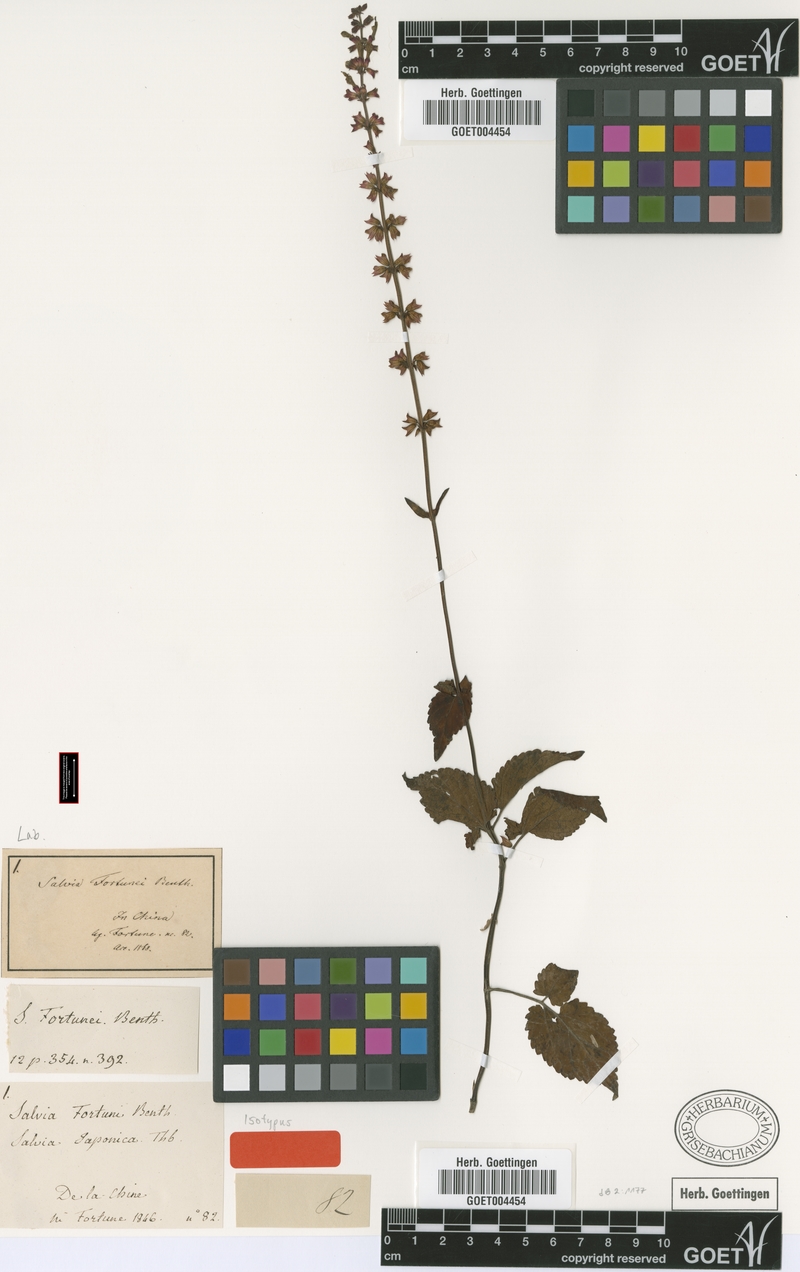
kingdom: Plantae
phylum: Tracheophyta
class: Magnoliopsida
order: Lamiales
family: Lamiaceae
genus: Salvia
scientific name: Salvia japonica
